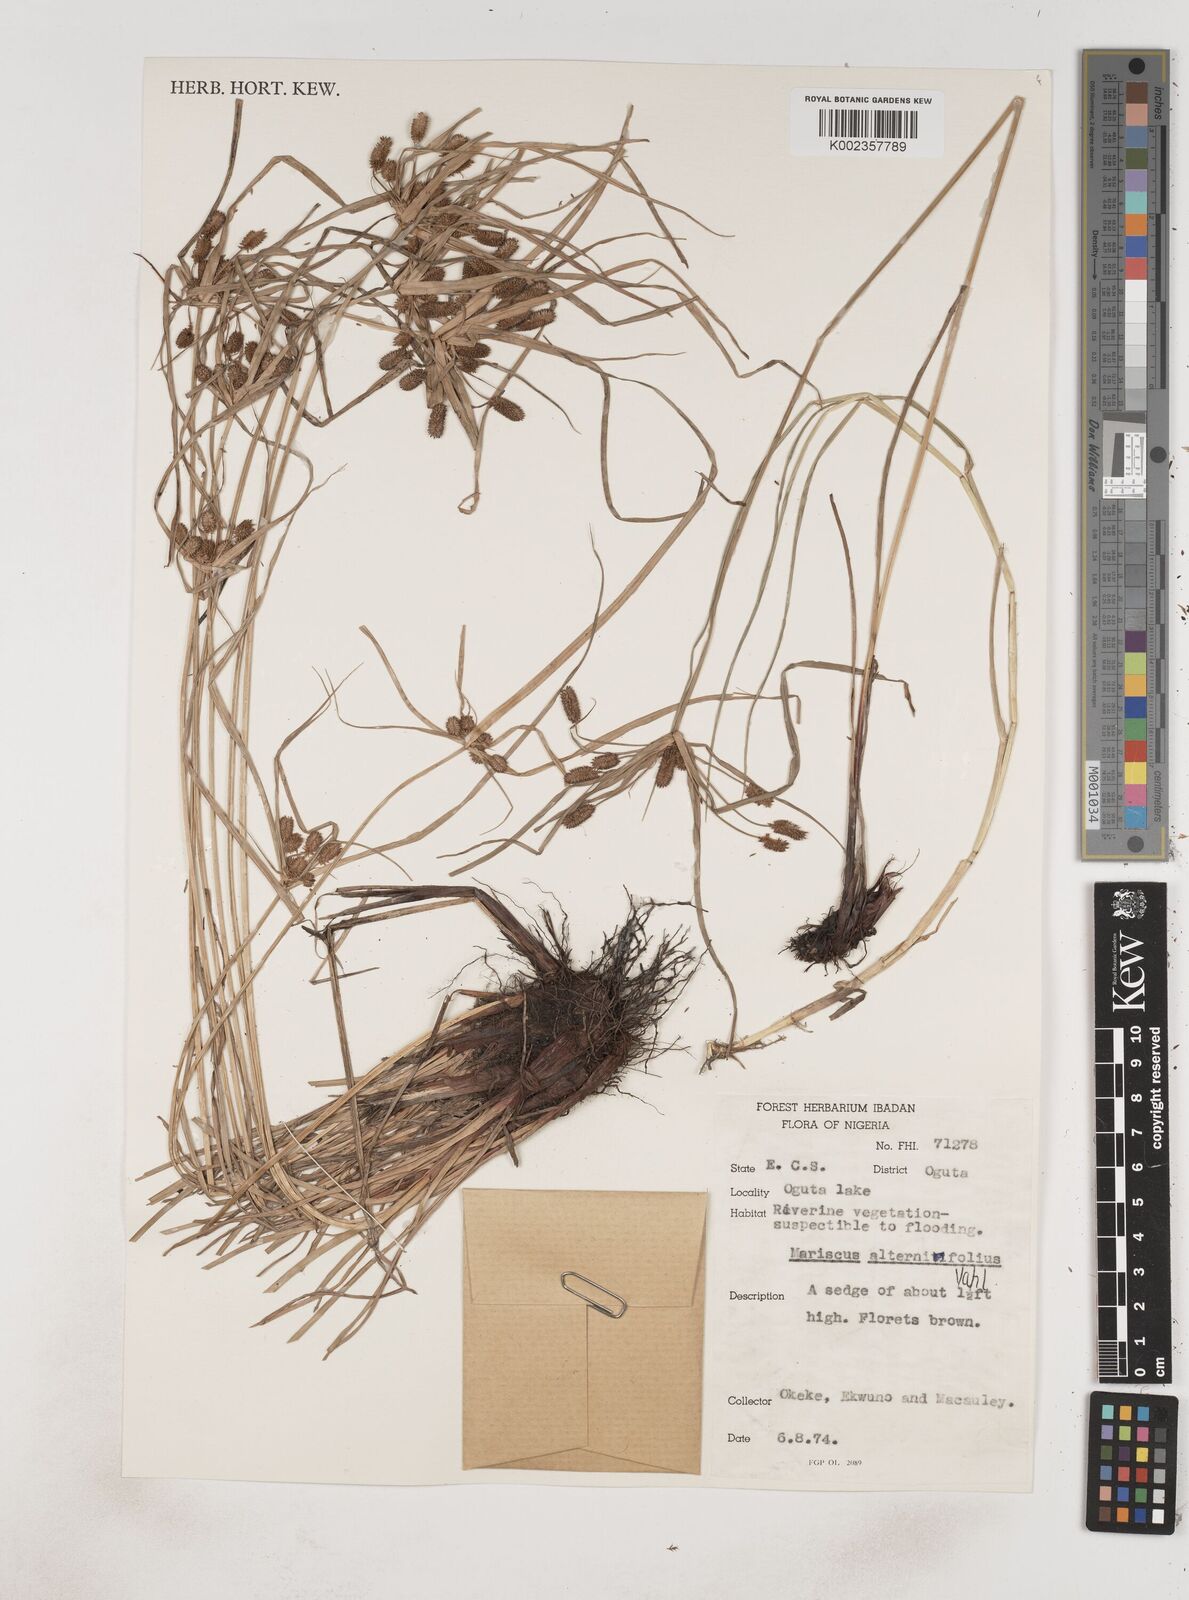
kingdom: Plantae
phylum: Tracheophyta
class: Liliopsida
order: Poales
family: Cyperaceae
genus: Cyperus
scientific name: Cyperus sublimis
